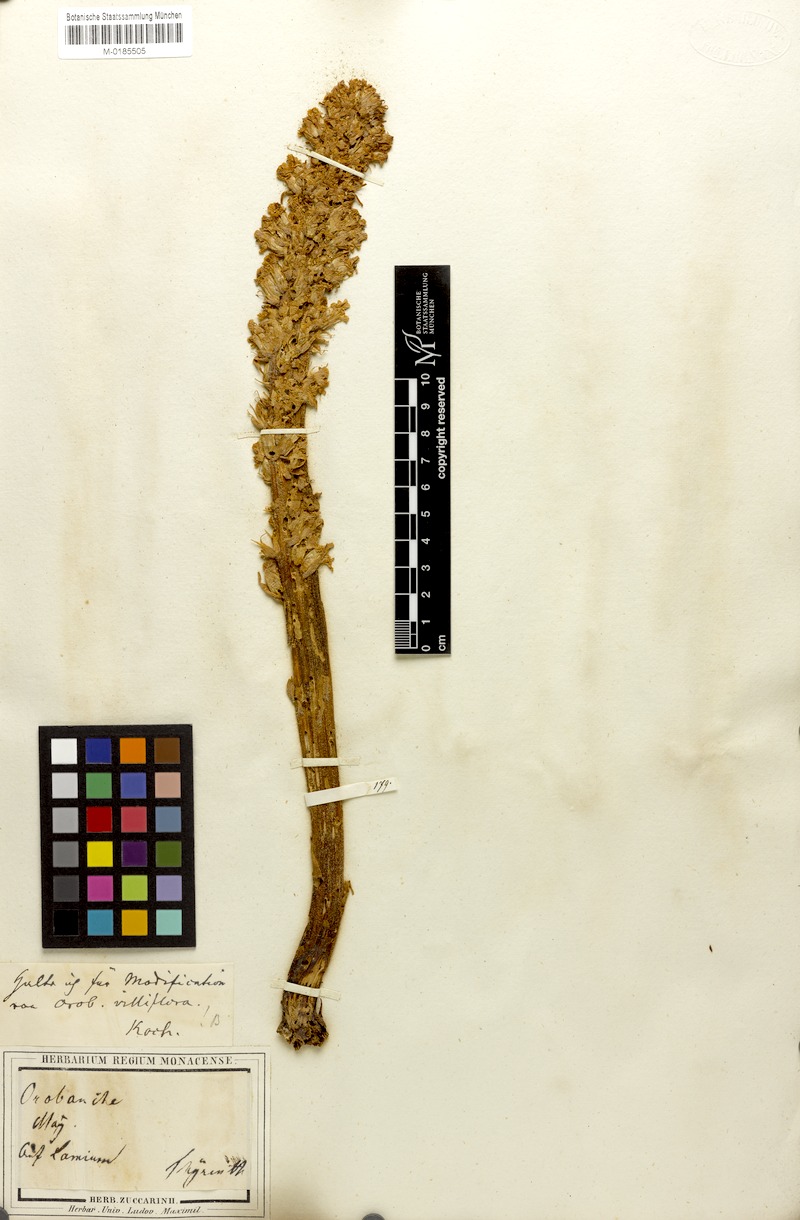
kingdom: Plantae
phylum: Tracheophyta
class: Magnoliopsida
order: Lamiales
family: Orobanchaceae
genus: Orobanche
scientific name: Orobanche pubescens
